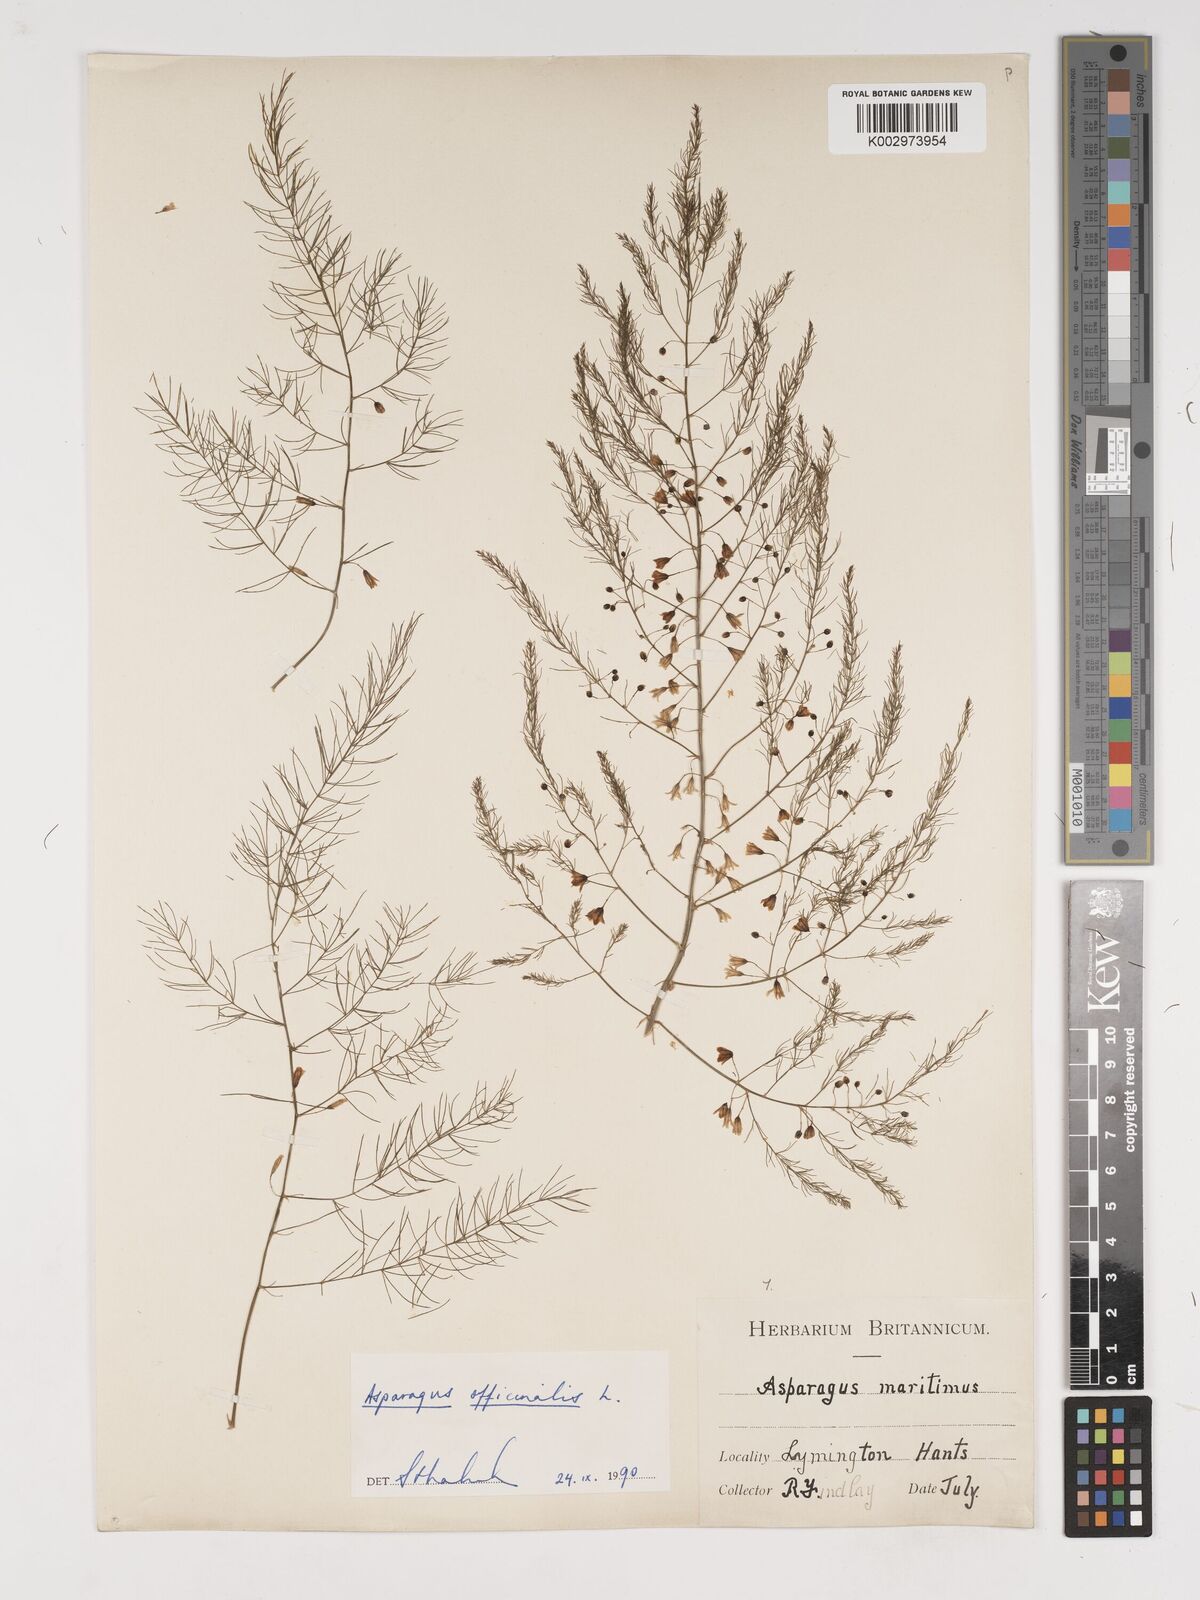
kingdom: Plantae
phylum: Tracheophyta
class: Liliopsida
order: Asparagales
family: Asparagaceae
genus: Asparagus
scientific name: Asparagus officinalis
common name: Garden asparagus
